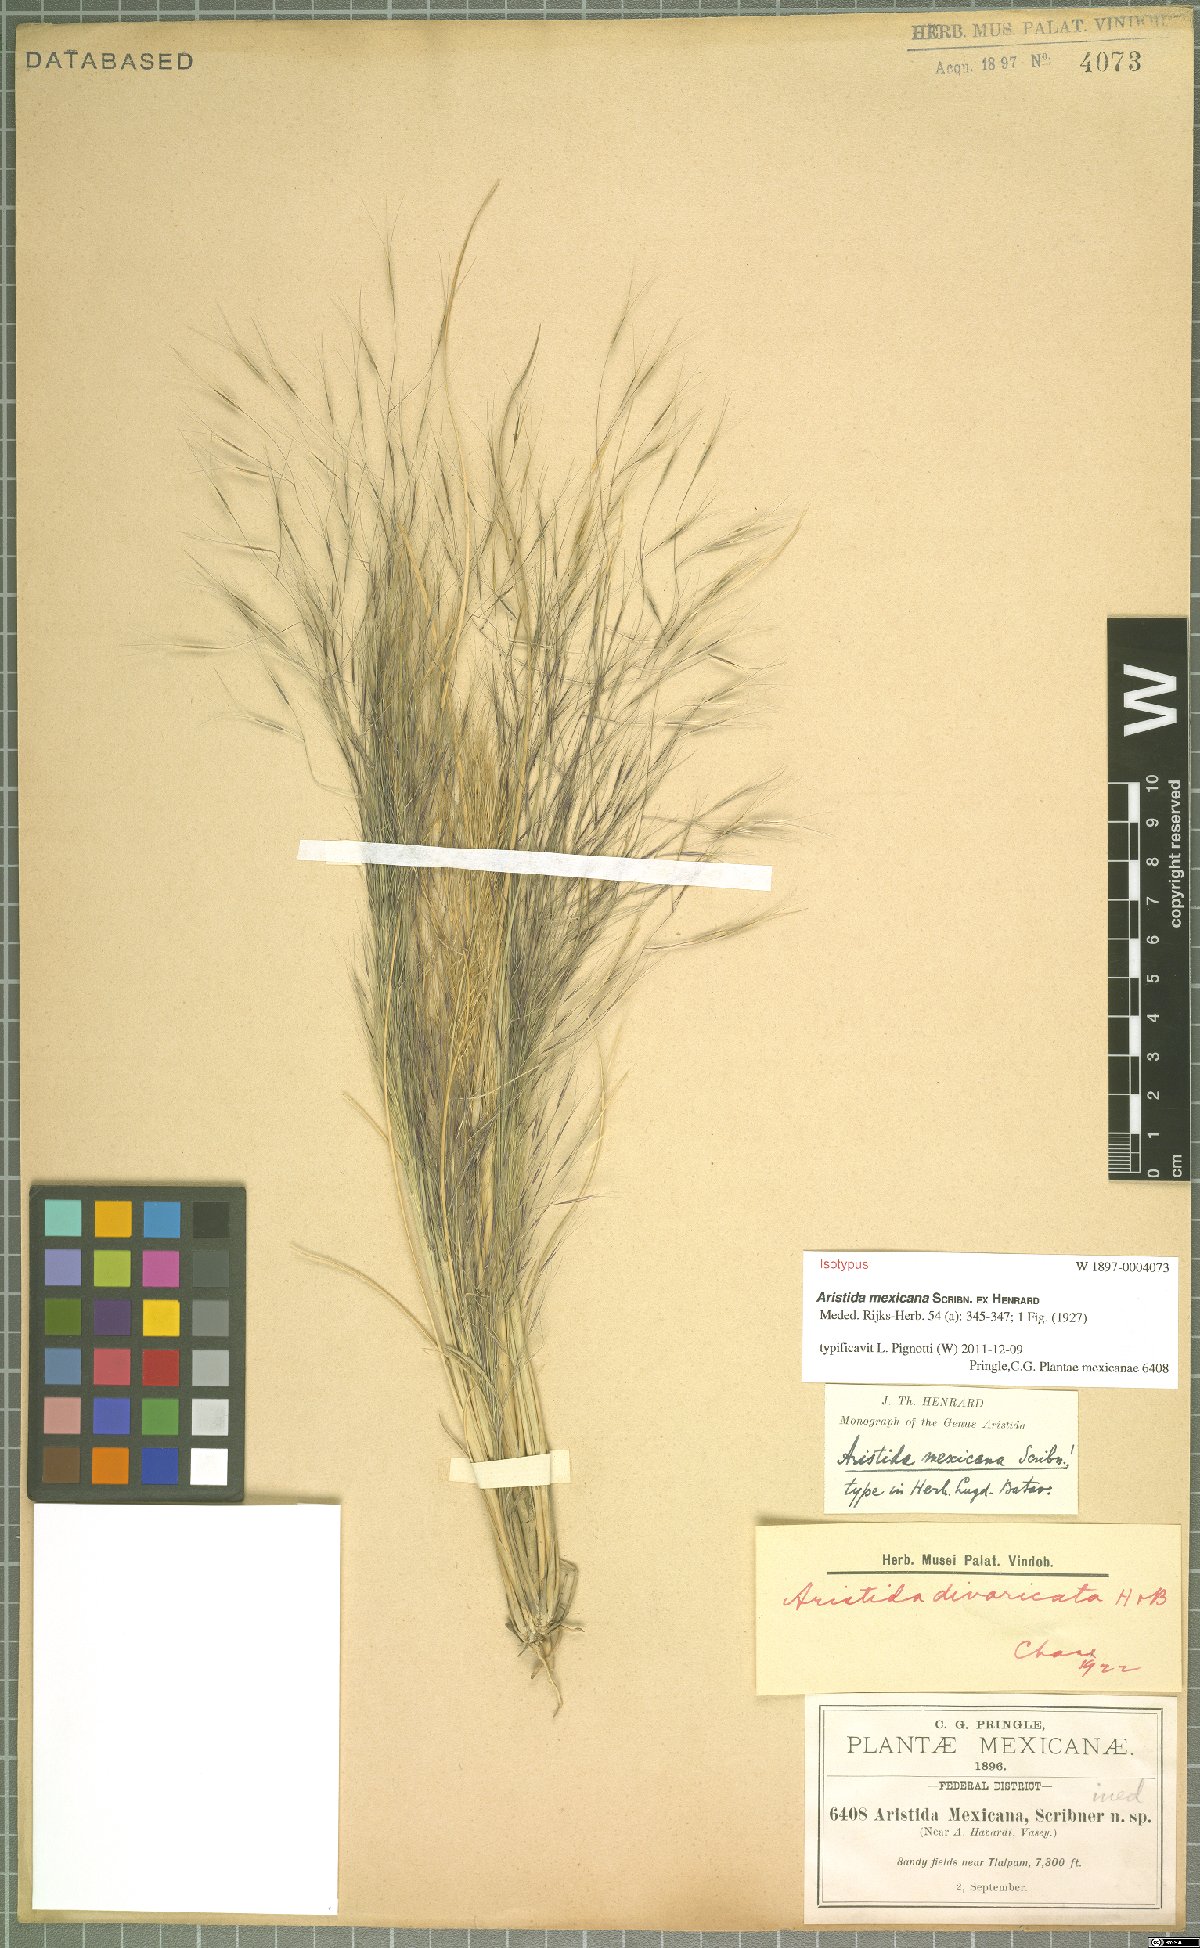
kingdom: Plantae
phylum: Tracheophyta
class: Liliopsida
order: Poales
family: Poaceae
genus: Aristida
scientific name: Aristida mexicana
